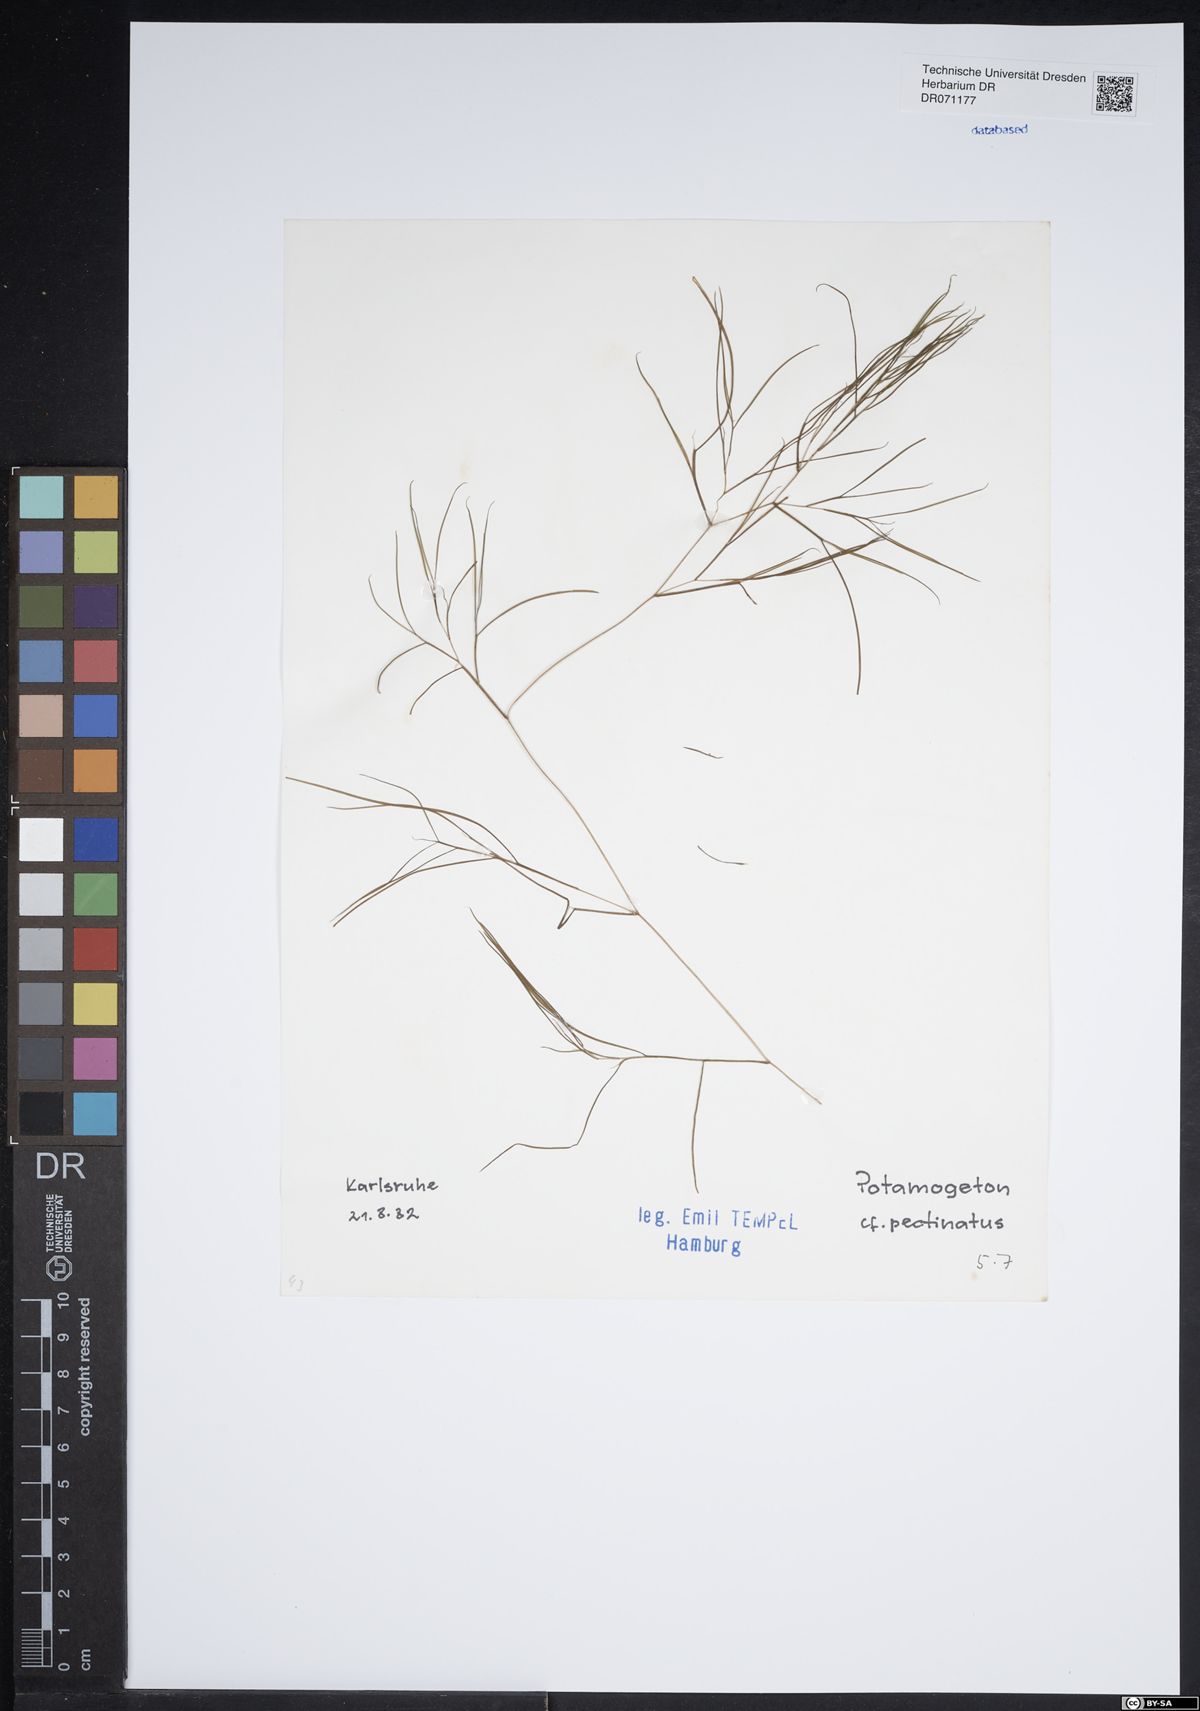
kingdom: Plantae
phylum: Tracheophyta
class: Liliopsida
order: Alismatales
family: Potamogetonaceae
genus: Stuckenia
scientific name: Stuckenia pectinata
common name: Sago pondweed
